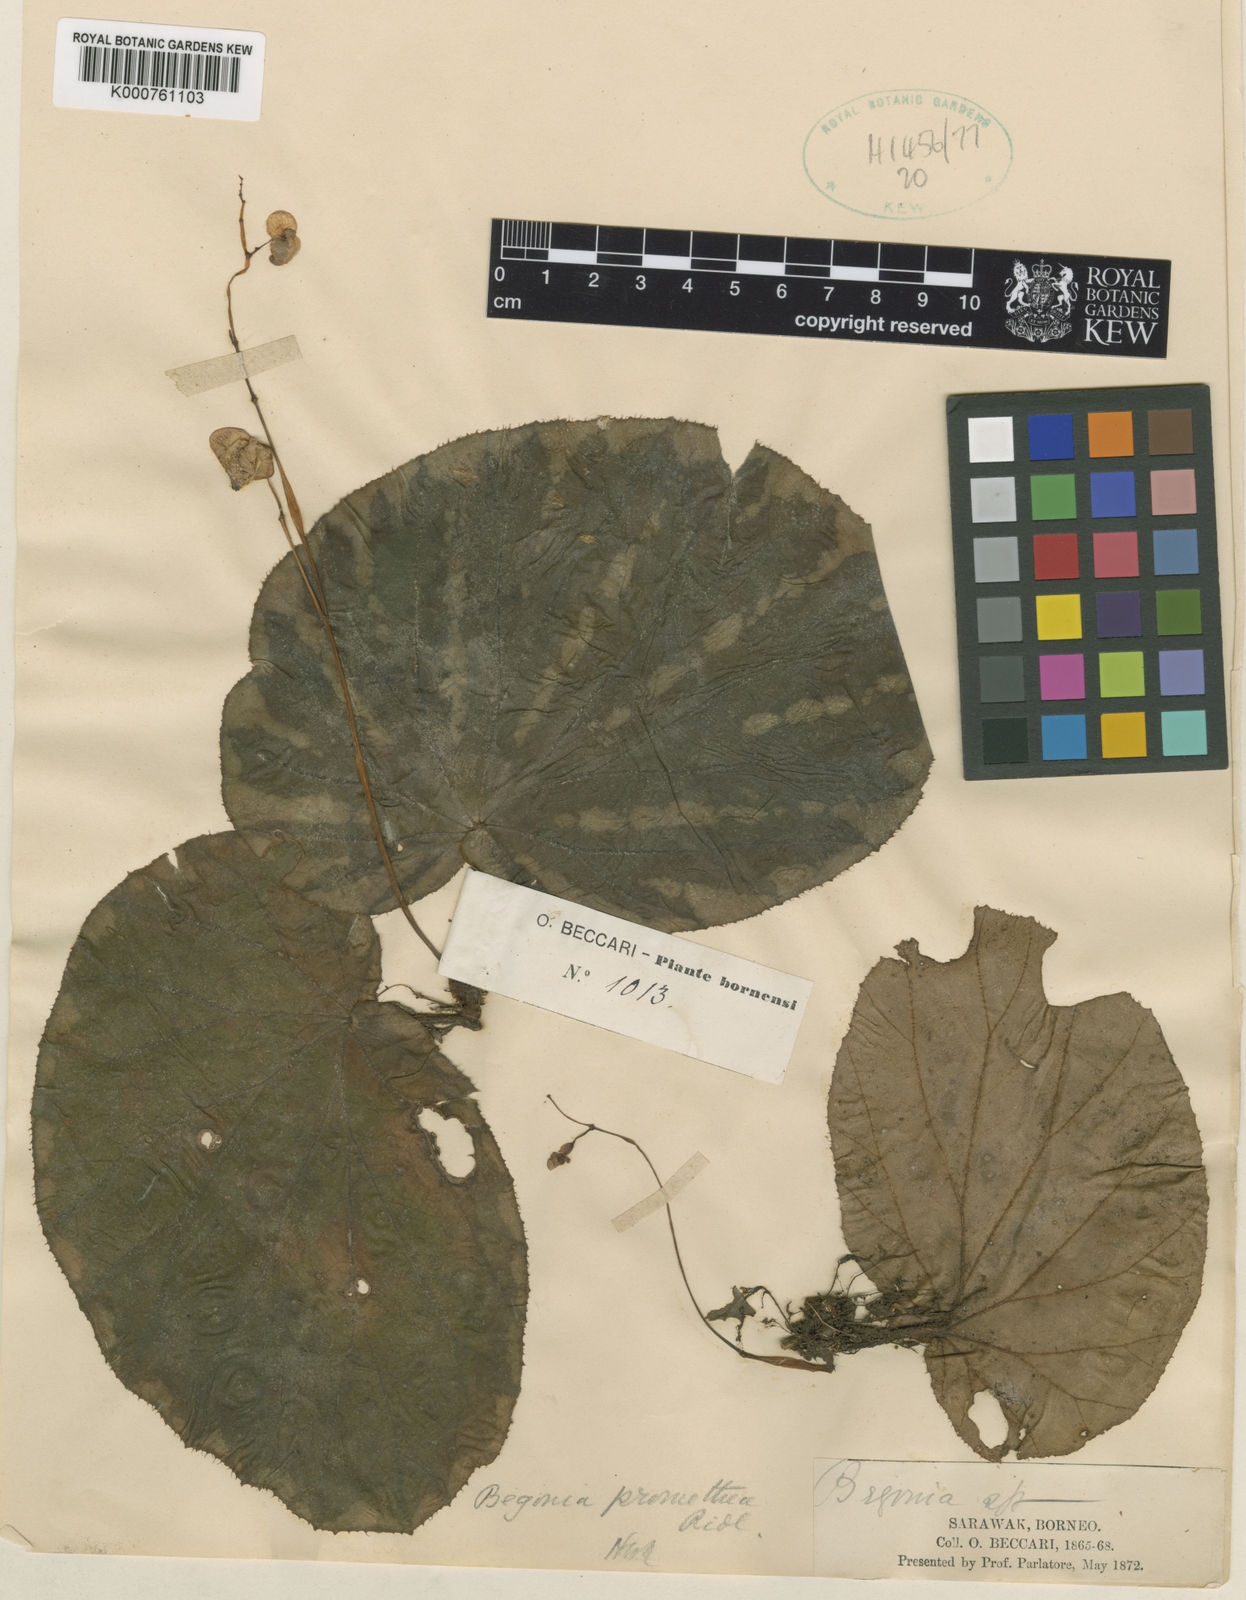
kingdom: Plantae
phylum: Tracheophyta
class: Magnoliopsida
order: Cucurbitales
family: Begoniaceae
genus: Begonia
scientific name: Begonia promethea
